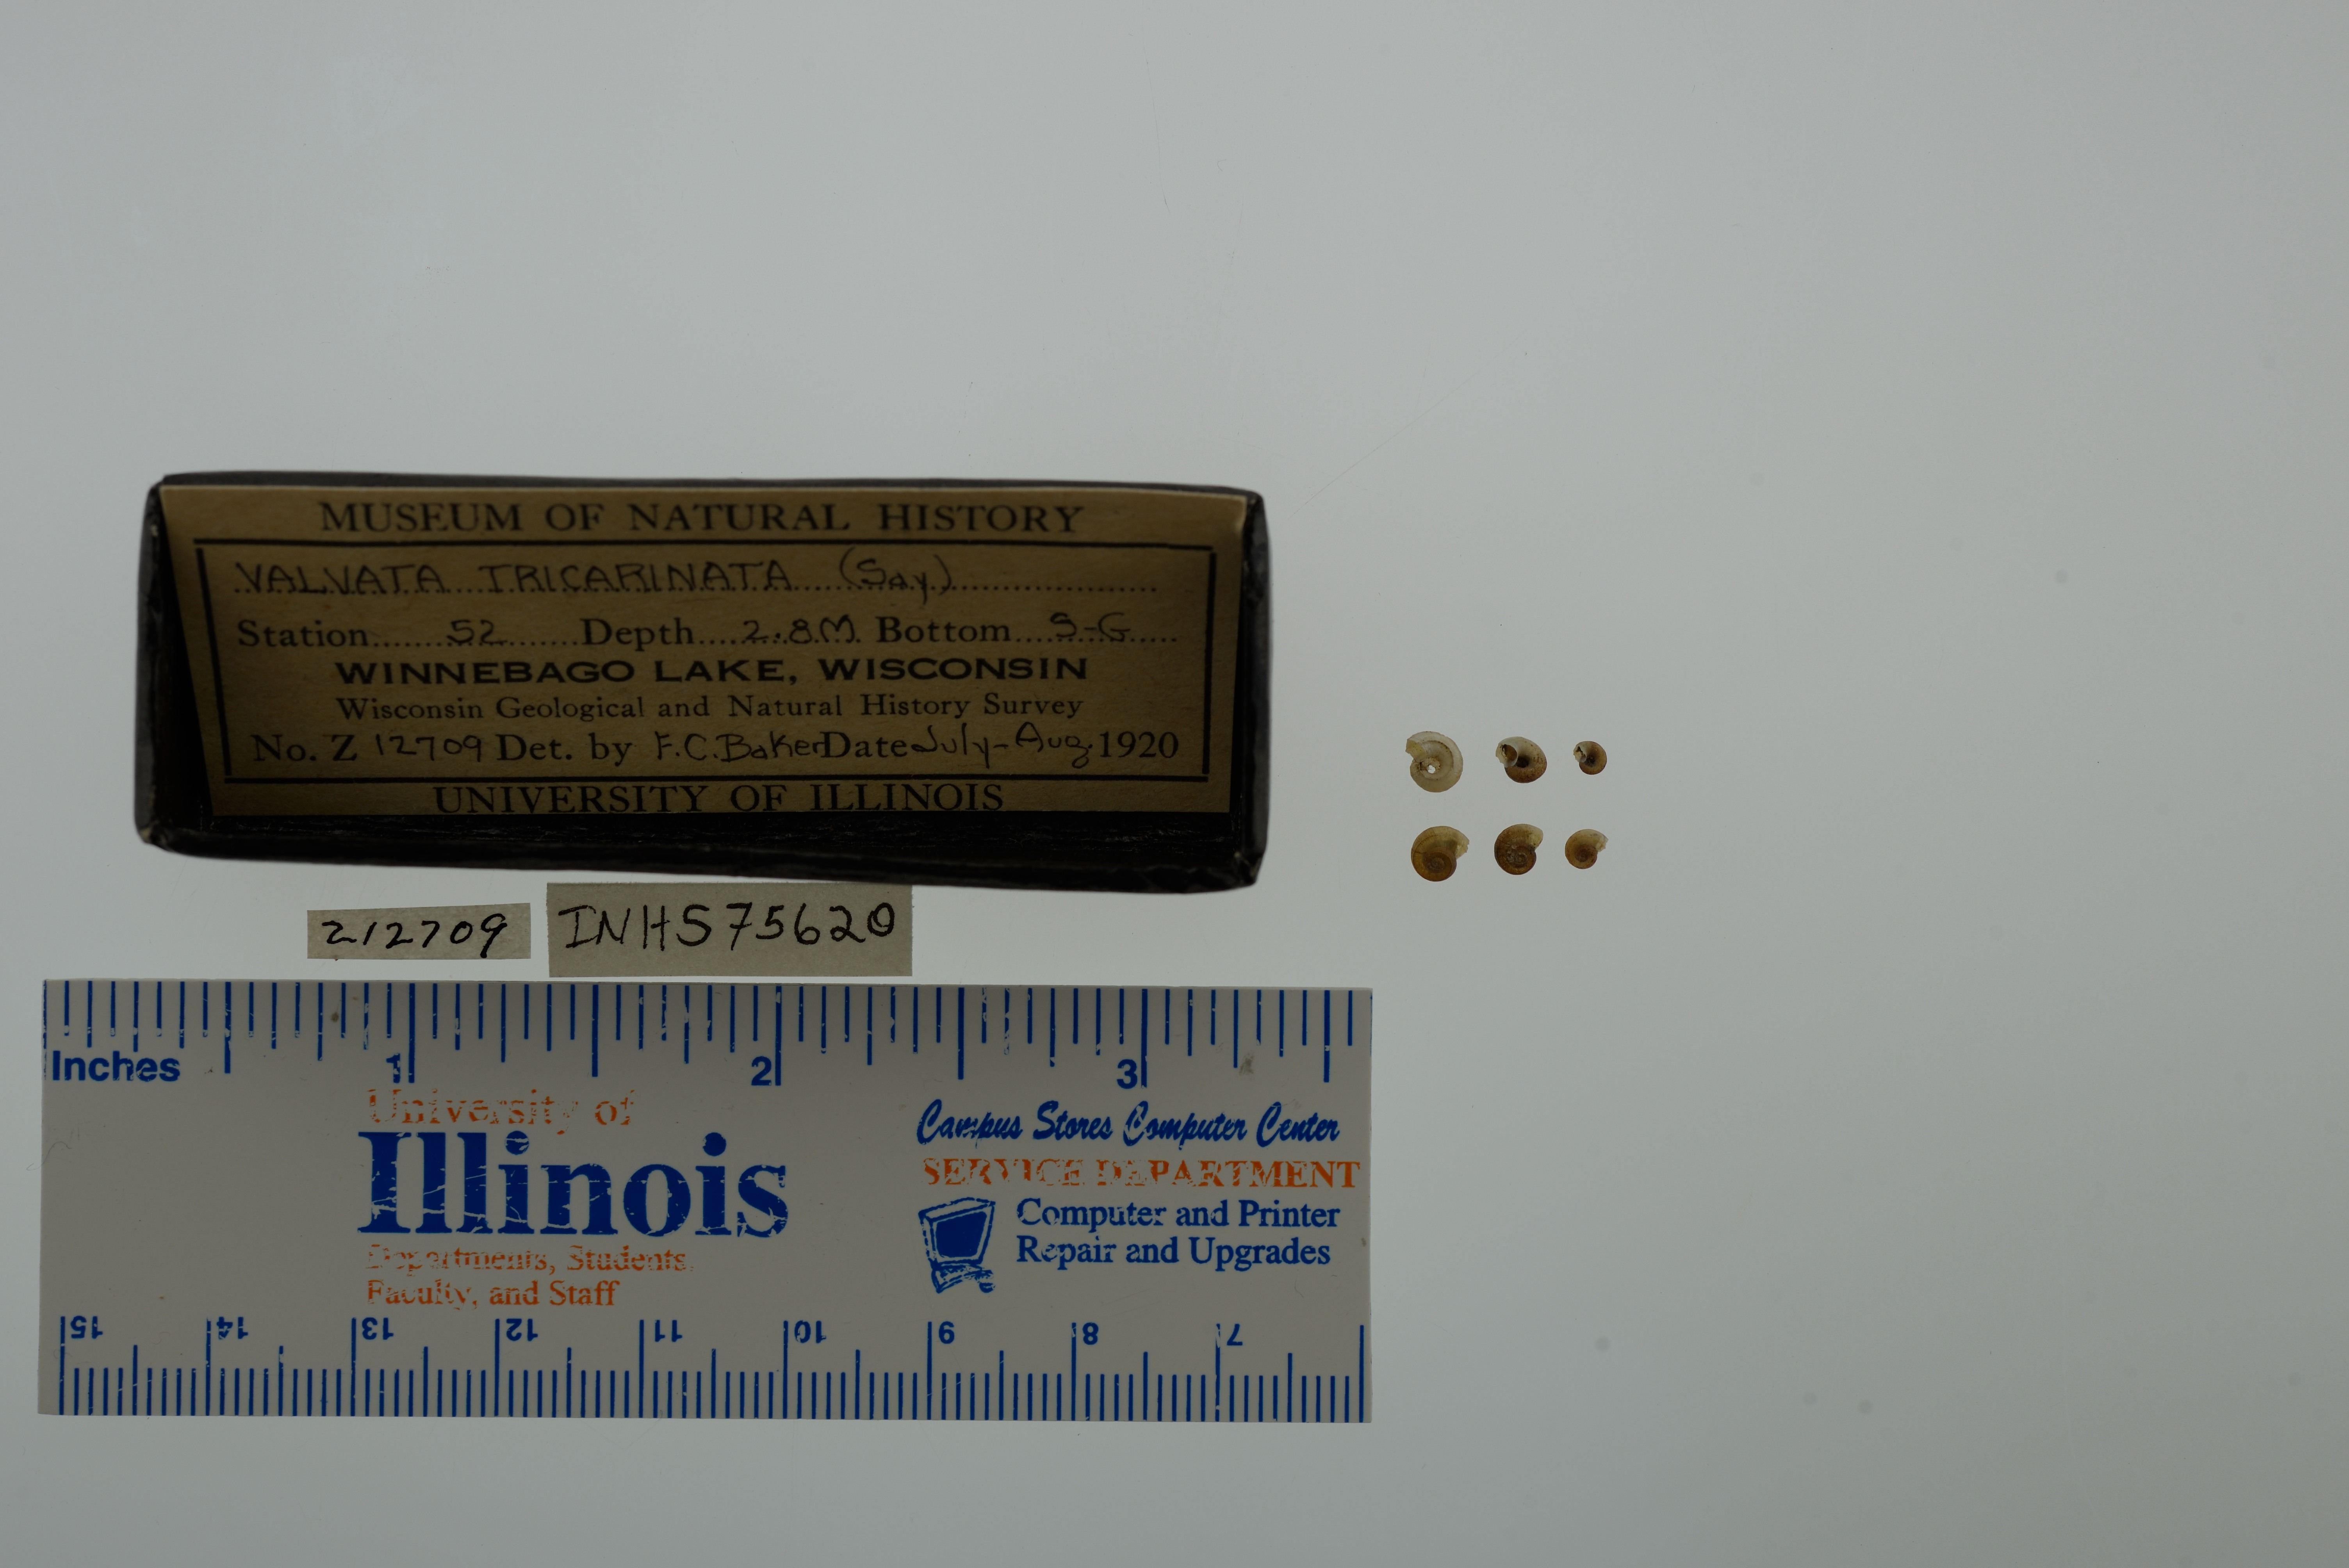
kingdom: Animalia
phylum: Mollusca
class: Gastropoda
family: Valvatidae
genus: Valvata
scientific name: Valvata tricarinata
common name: Three-ridge valvata
